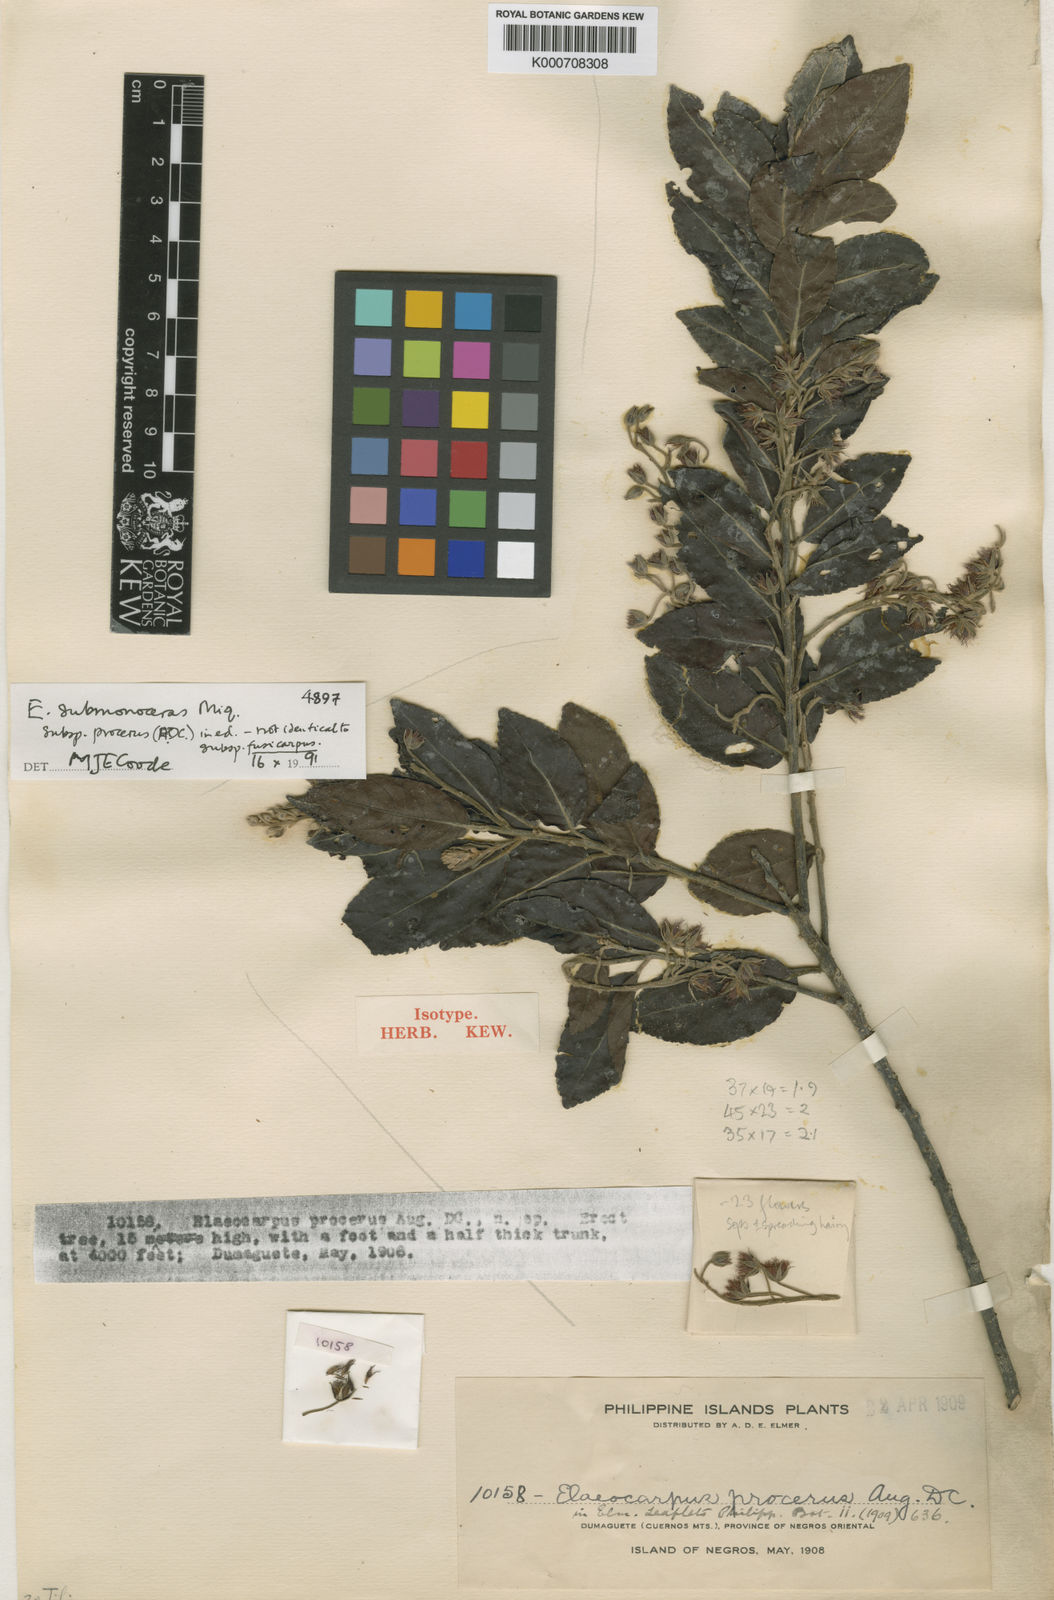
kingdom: Plantae
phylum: Tracheophyta
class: Magnoliopsida
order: Oxalidales
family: Elaeocarpaceae
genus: Elaeocarpus
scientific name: Elaeocarpus submonoceras
